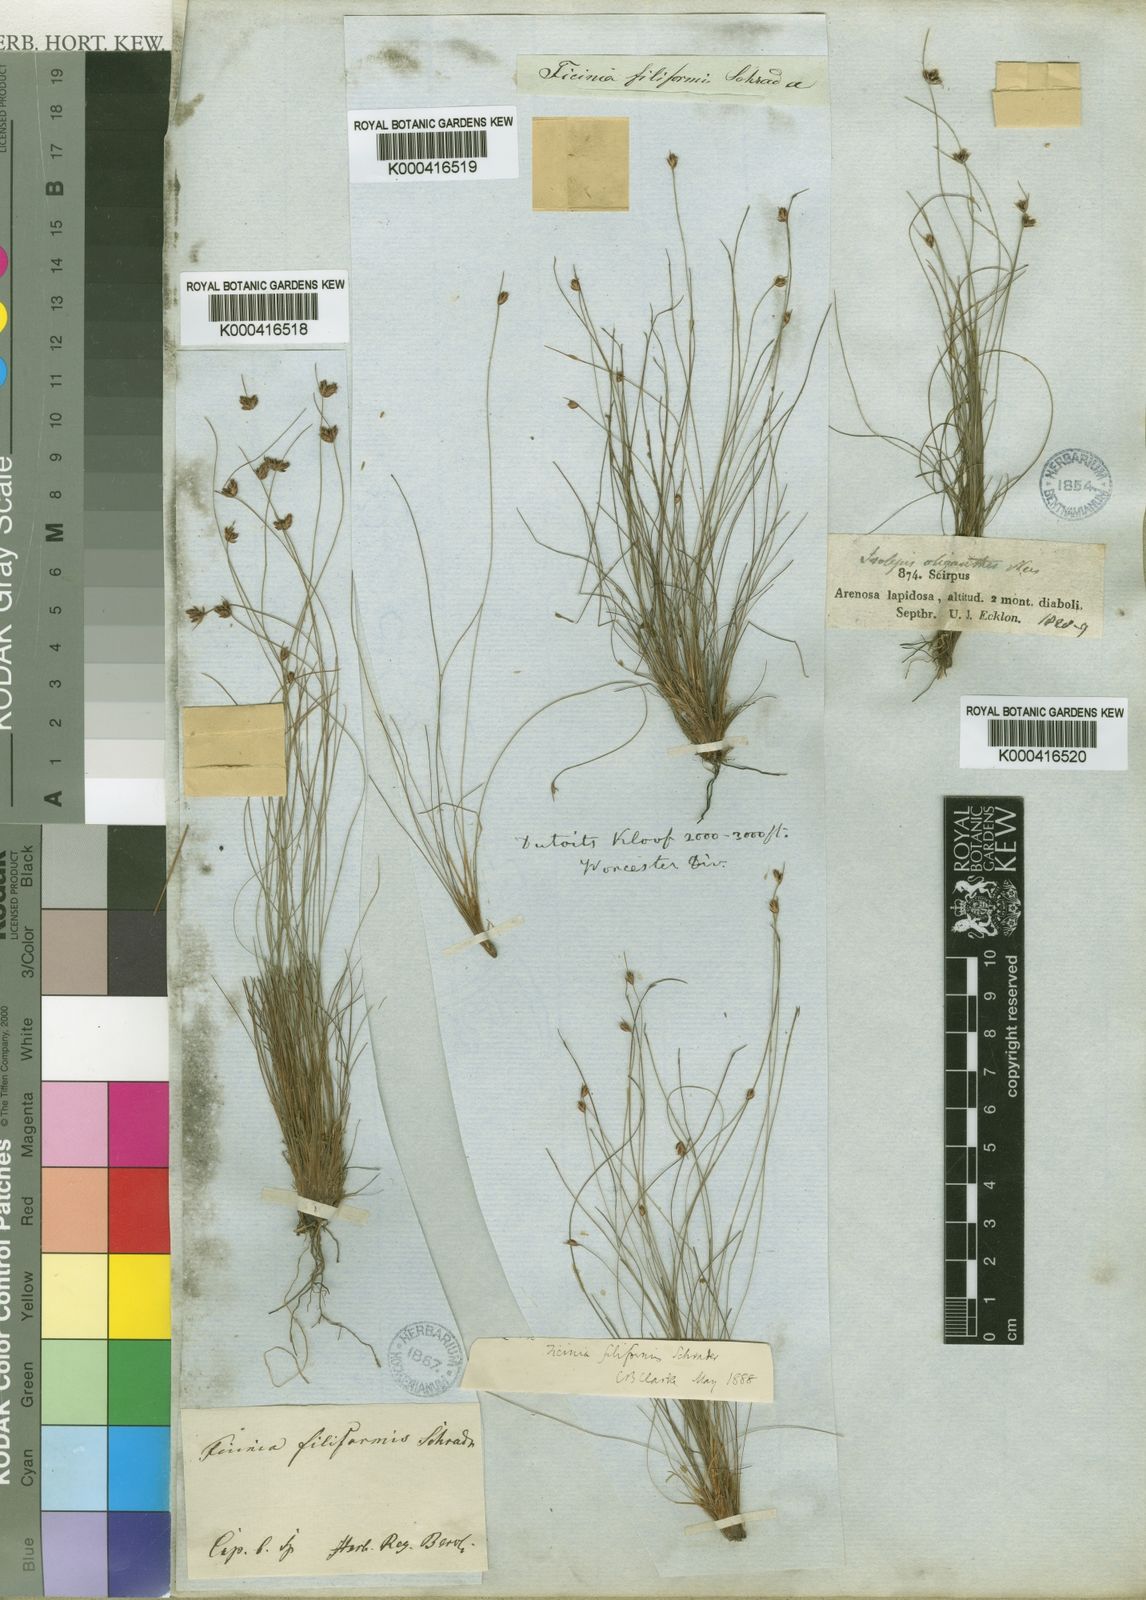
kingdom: Plantae
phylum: Tracheophyta
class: Liliopsida
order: Poales
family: Cyperaceae
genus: Ficinia
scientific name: Ficinia oligantha
